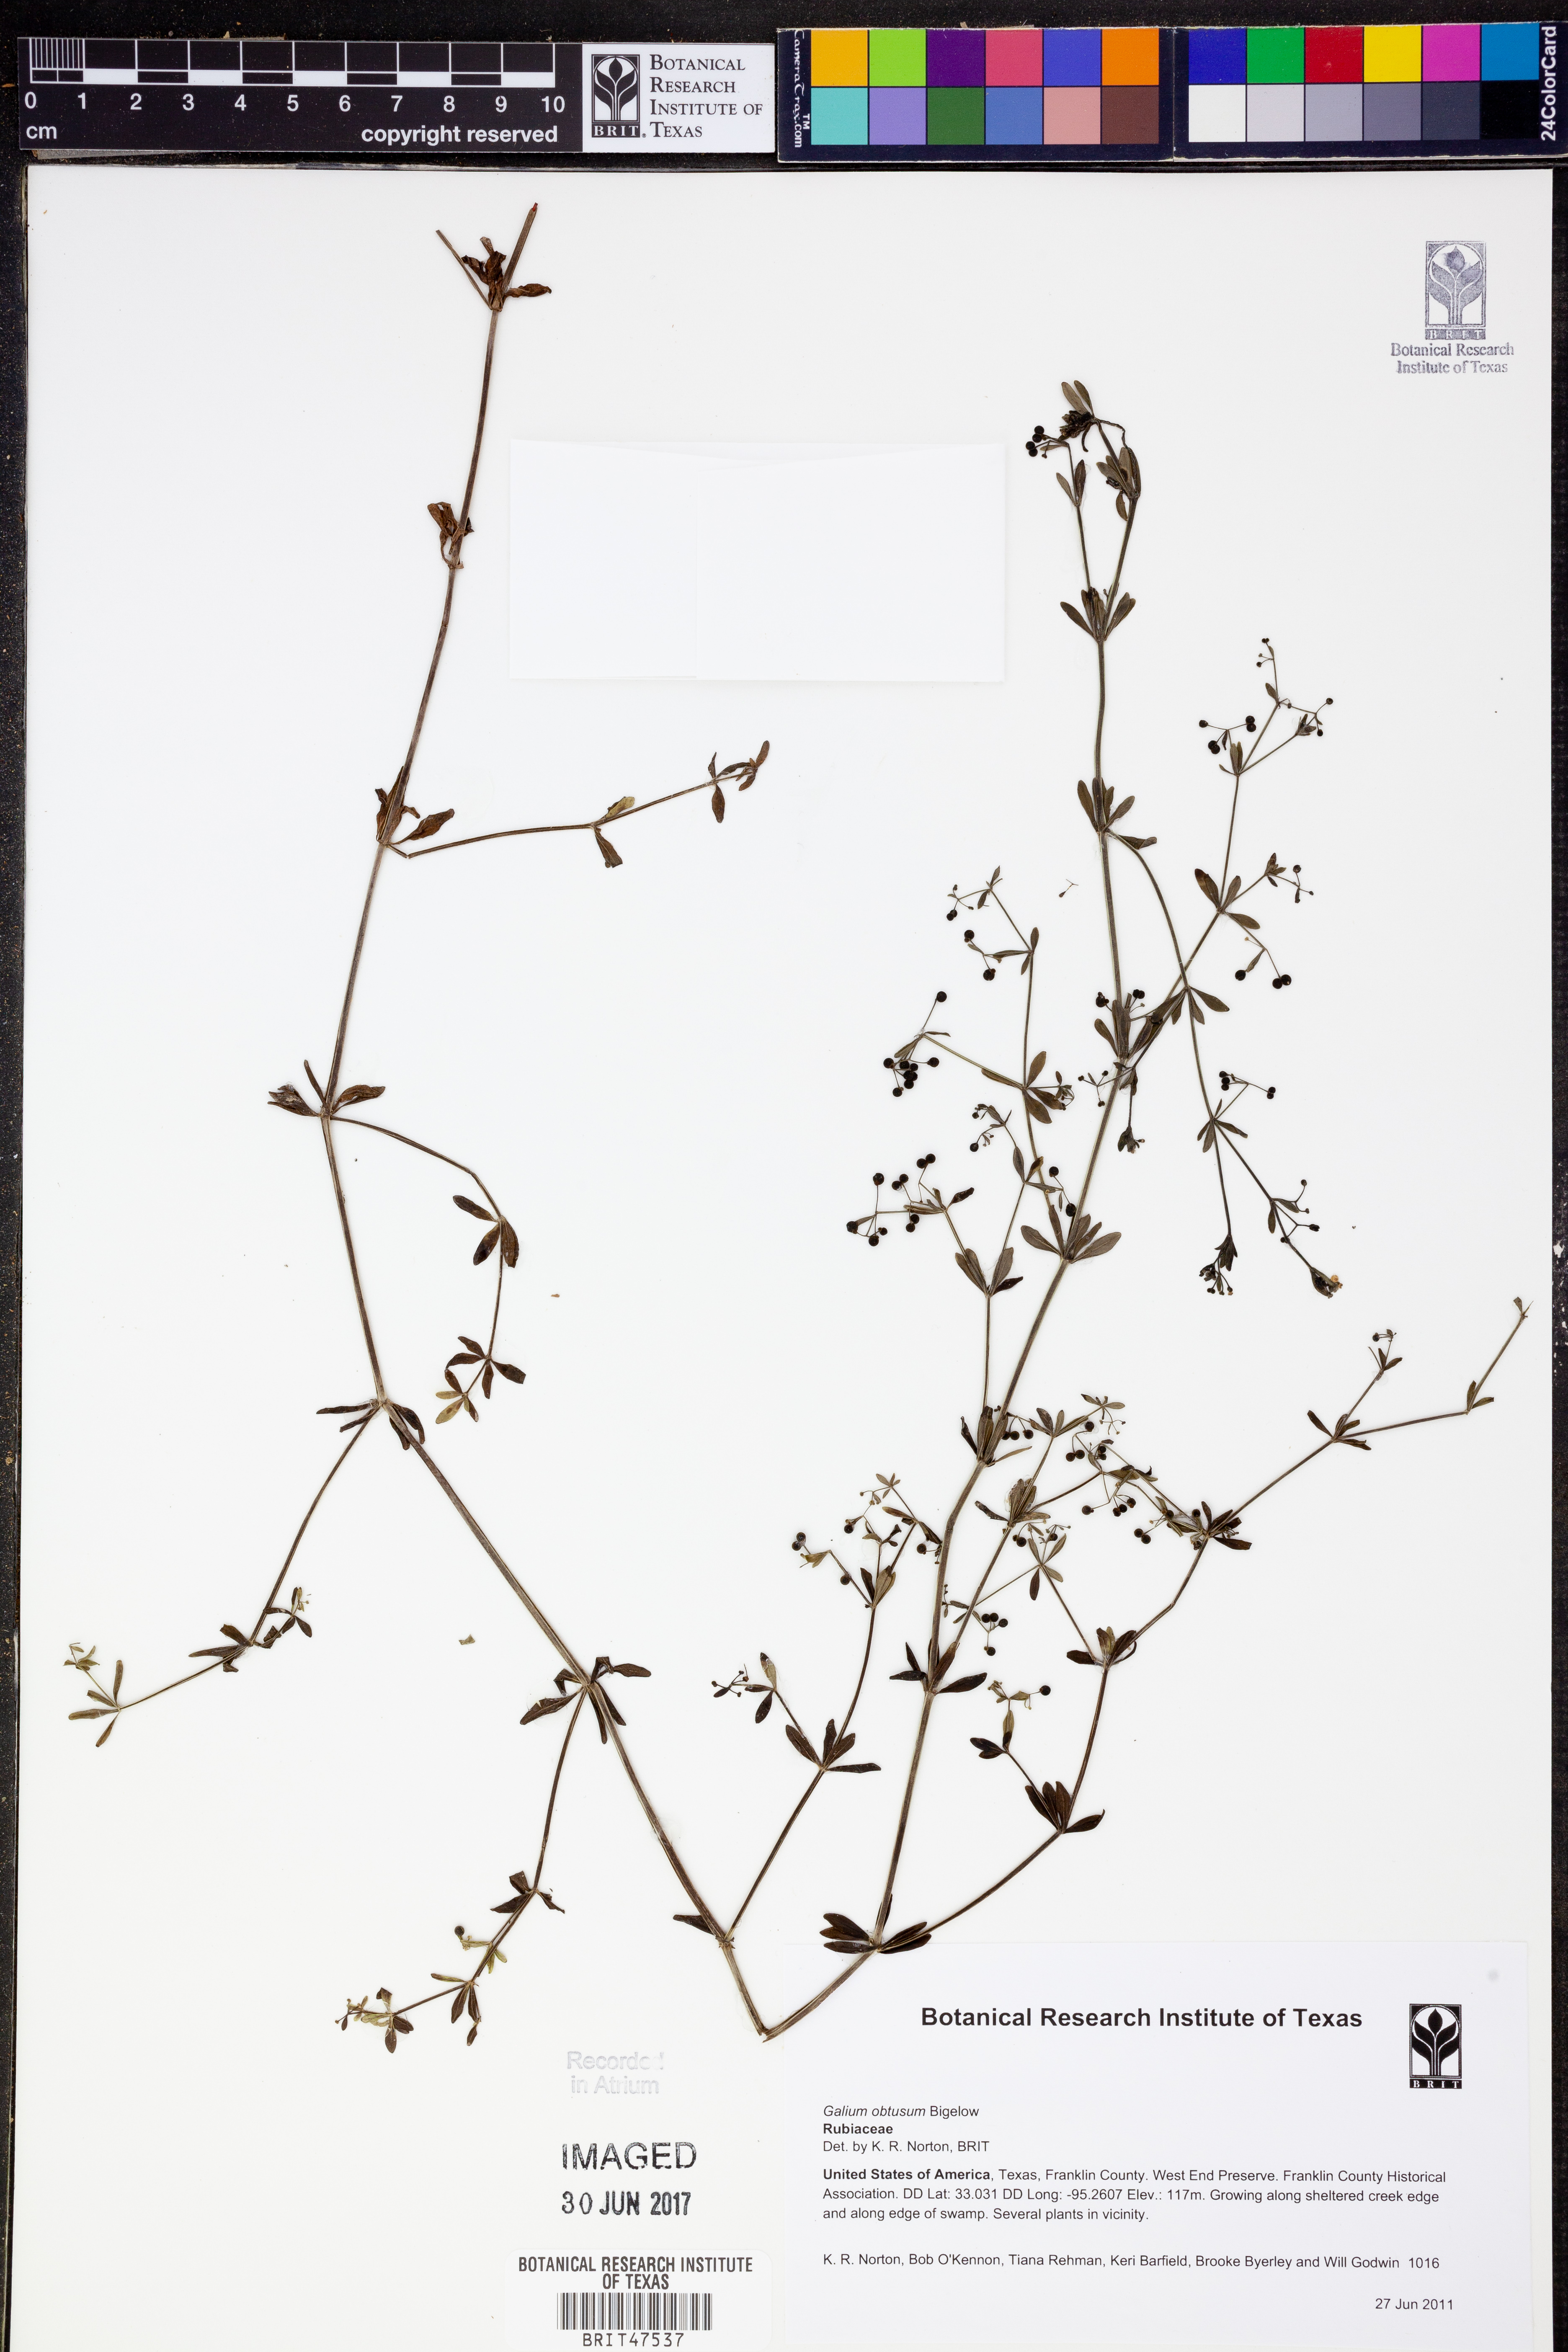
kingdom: Plantae
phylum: Tracheophyta
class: Magnoliopsida
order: Gentianales
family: Rubiaceae
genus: Galium
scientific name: Galium obtusum
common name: Blunt-leaved bedstraw
